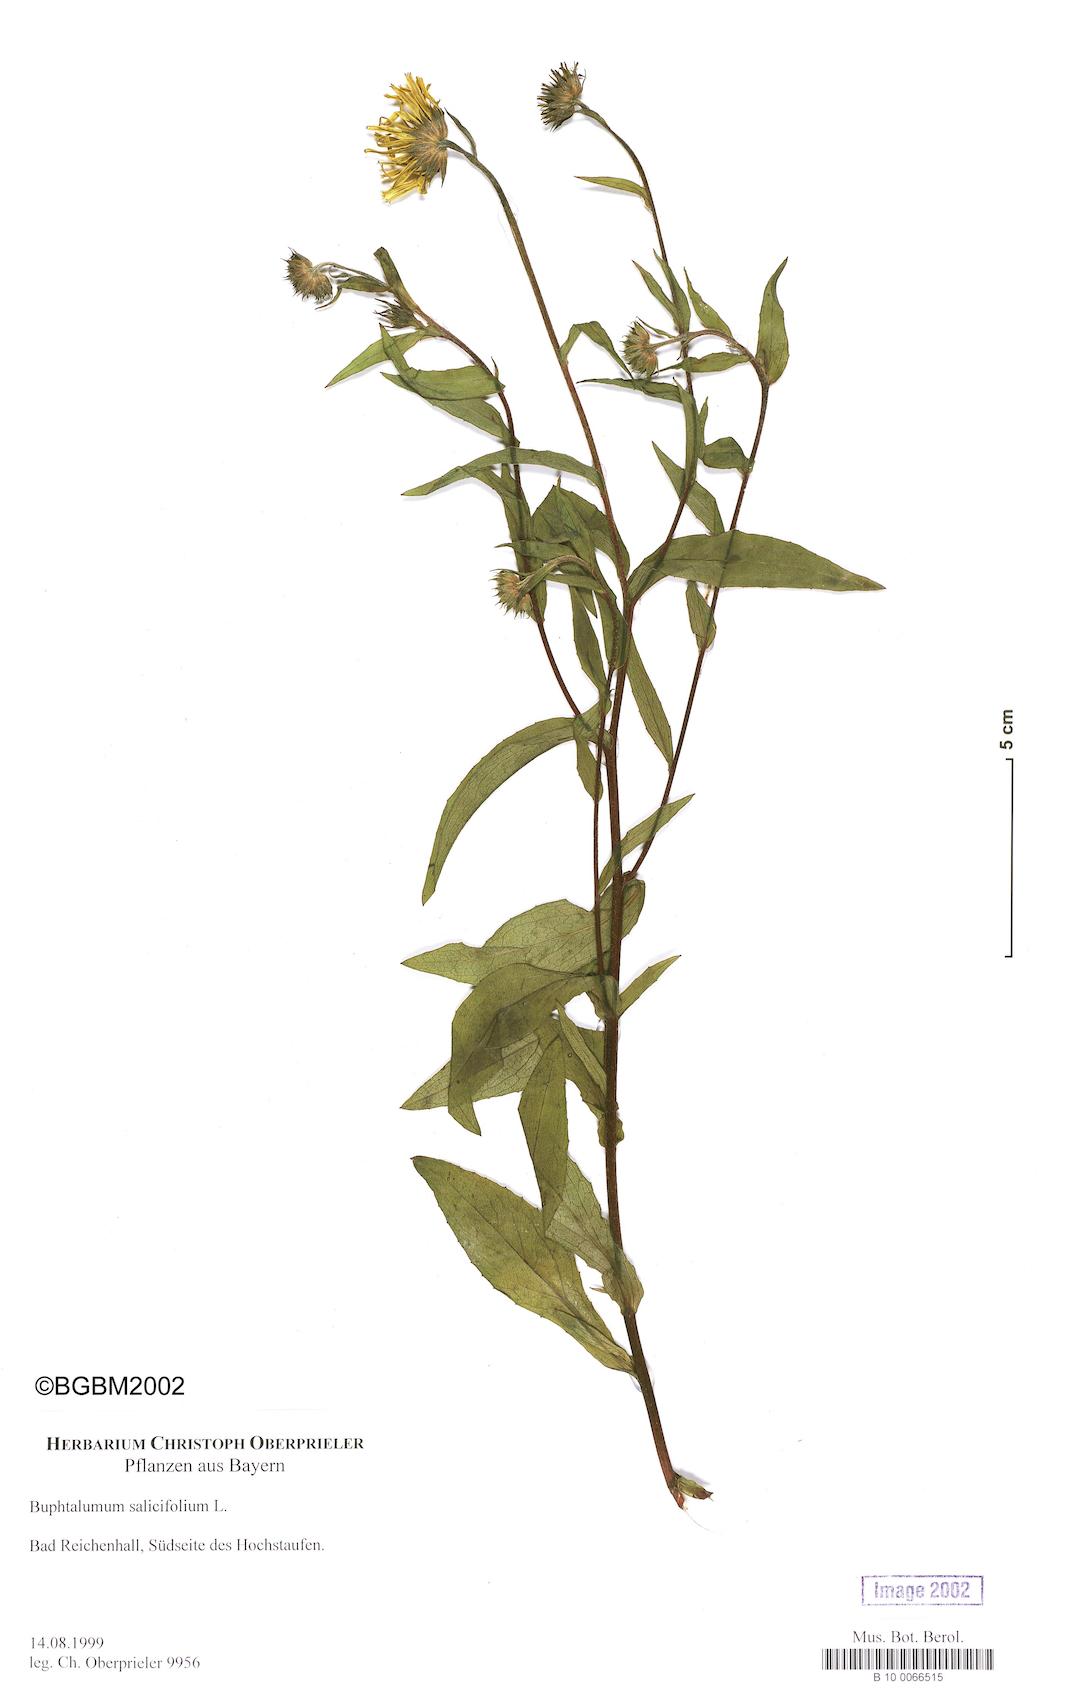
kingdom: Plantae
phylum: Tracheophyta
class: Magnoliopsida
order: Asterales
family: Asteraceae
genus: Buphthalmum
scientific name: Buphthalmum salicifolium
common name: Willow-leaved yellow-oxeye
